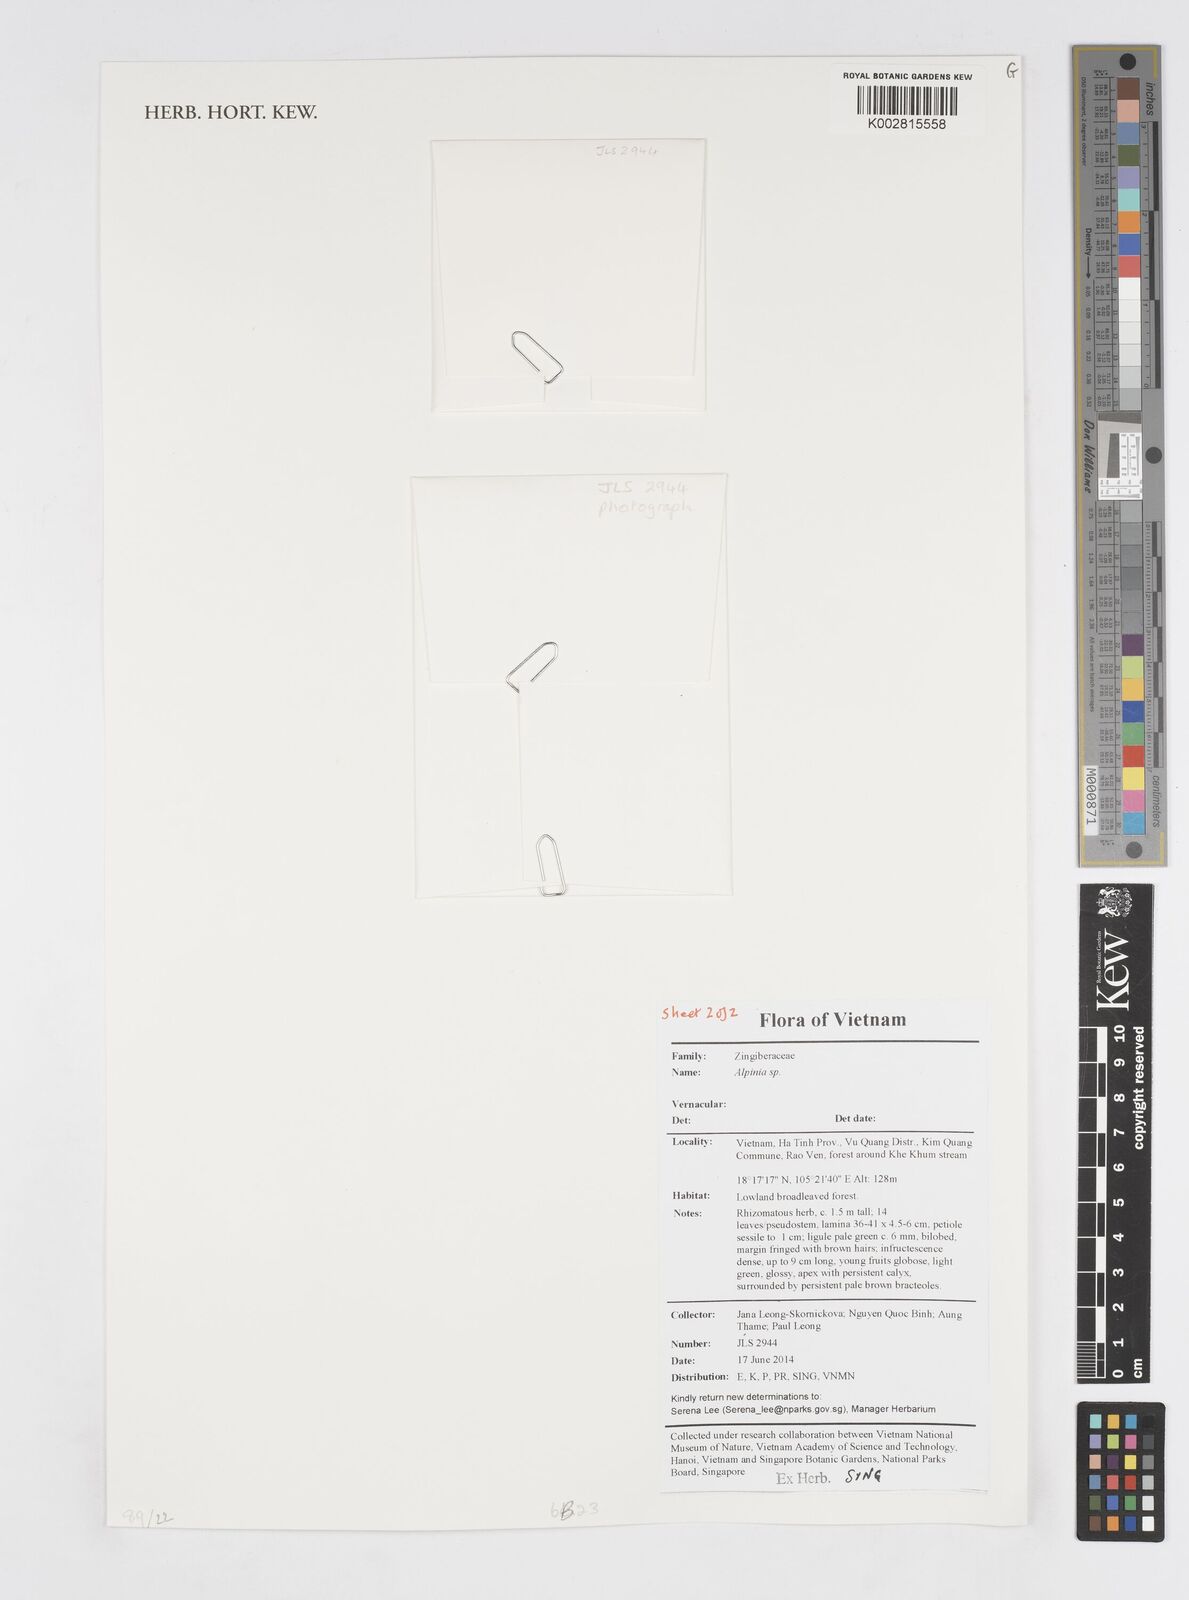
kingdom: Plantae
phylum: Tracheophyta
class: Liliopsida
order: Zingiberales
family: Zingiberaceae
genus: Alpinia
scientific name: Alpinia
